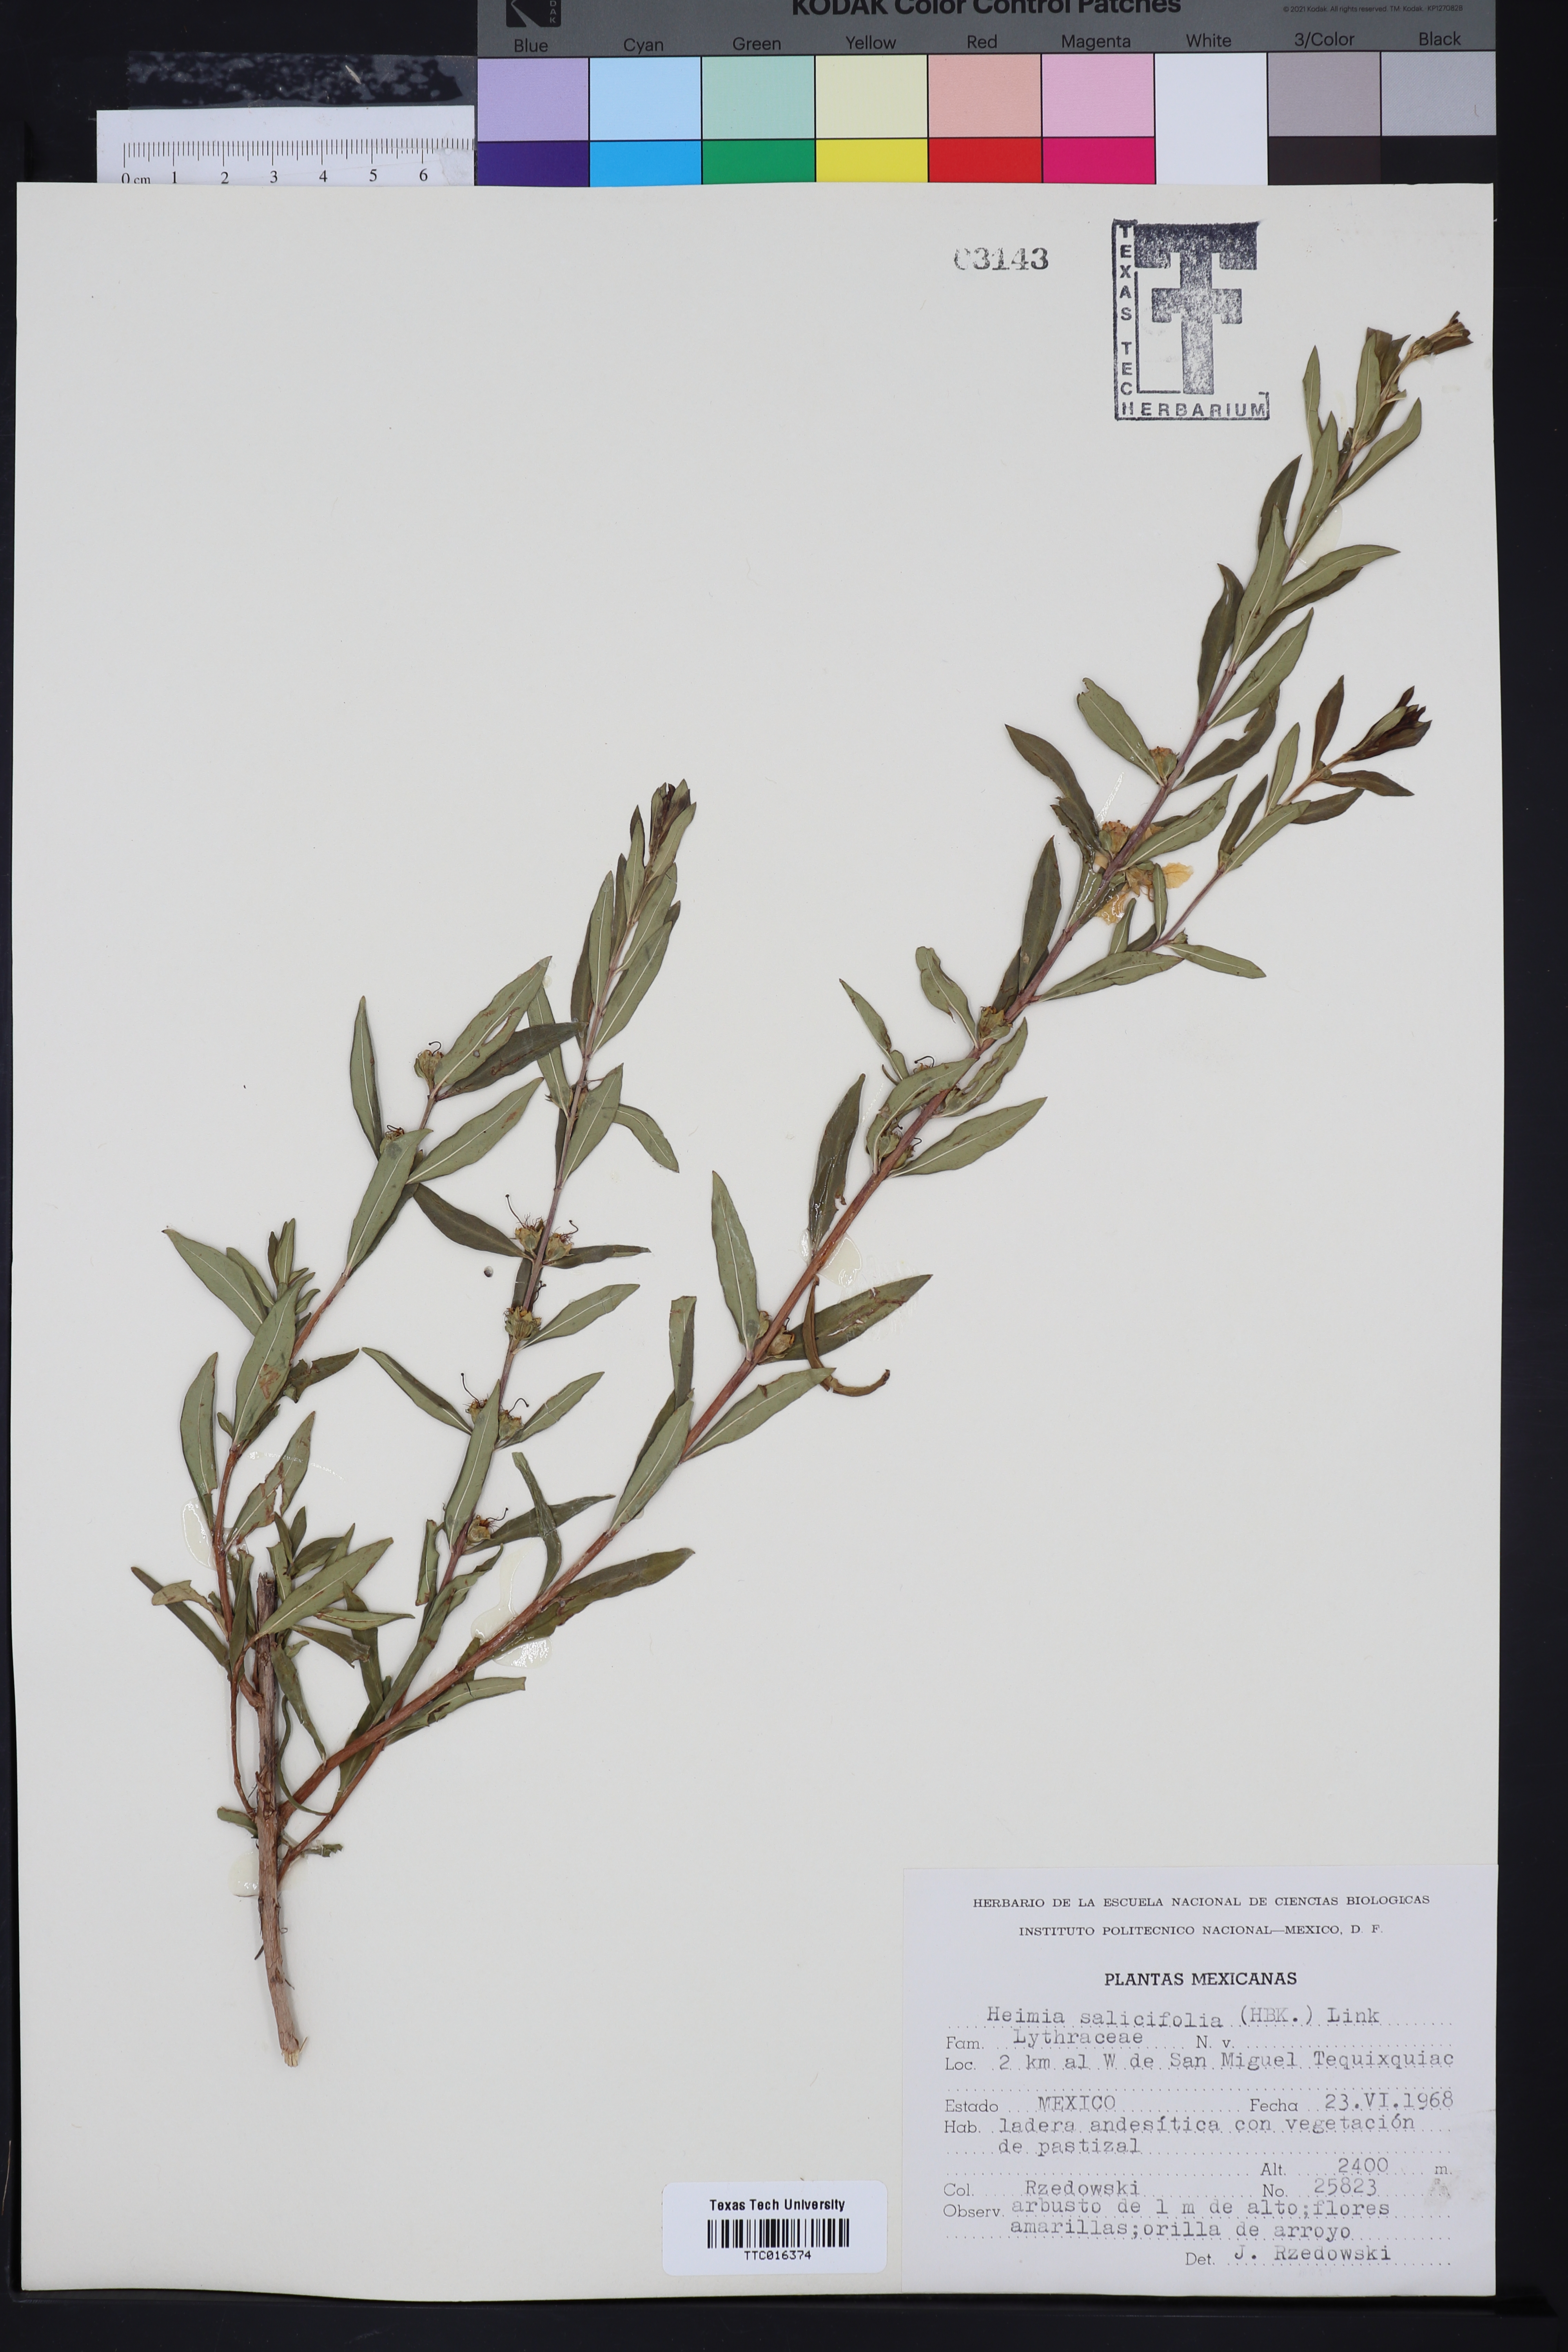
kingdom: Plantae
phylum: Tracheophyta
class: Magnoliopsida
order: Myrtales
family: Lythraceae
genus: Heimia
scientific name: Heimia salicifolia
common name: Willow-leaf heimia
